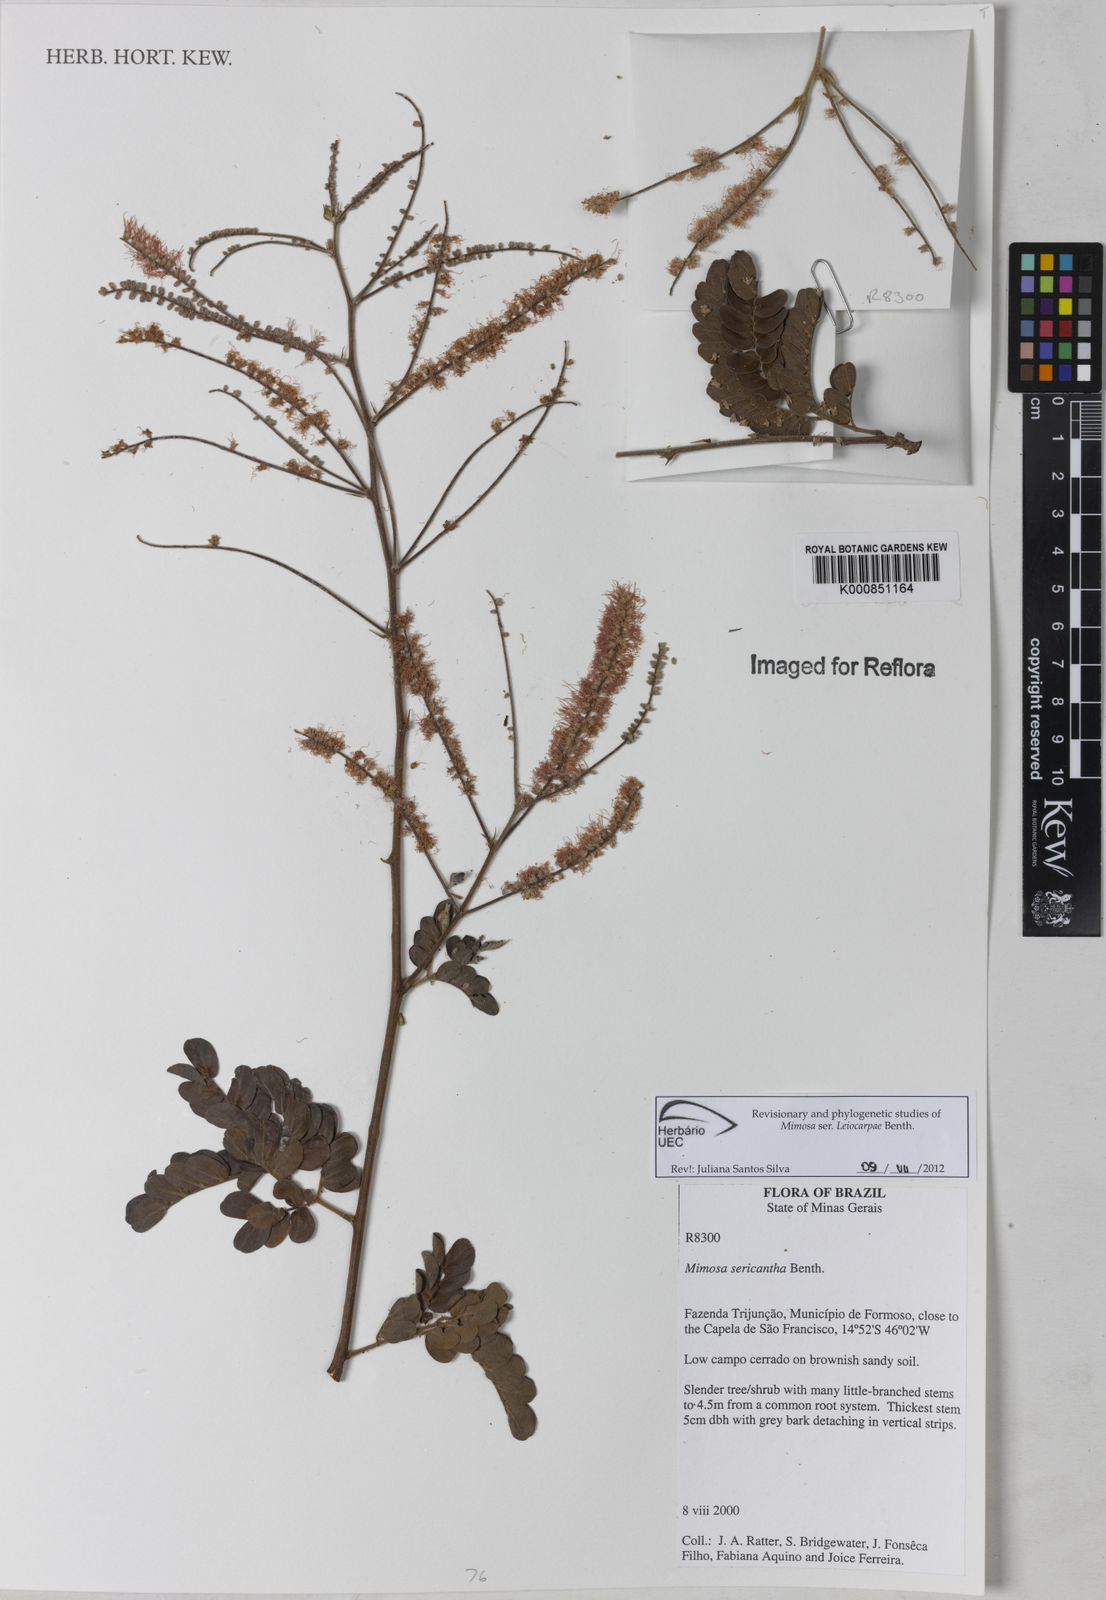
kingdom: Plantae
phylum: Tracheophyta
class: Magnoliopsida
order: Fabales
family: Fabaceae
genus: Mimosa
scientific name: Mimosa sericantha
